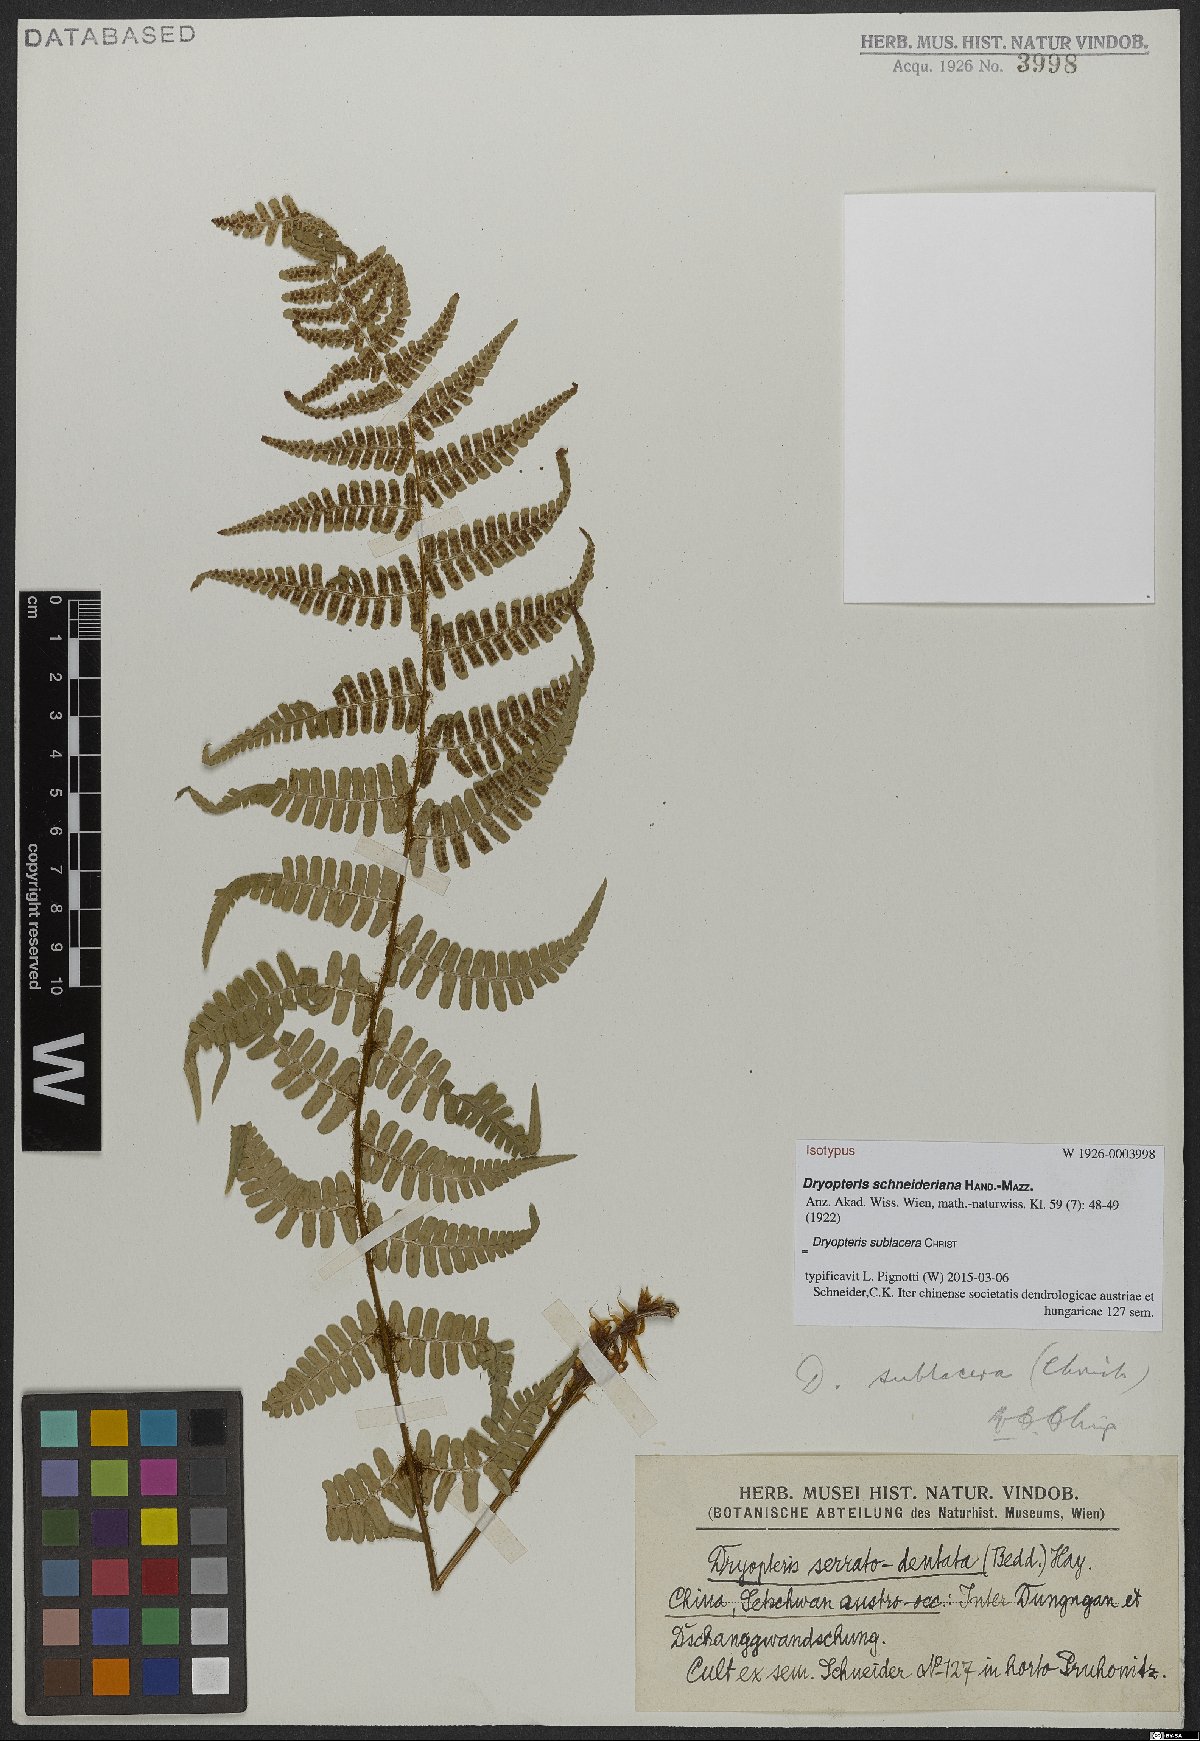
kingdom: Plantae
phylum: Tracheophyta
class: Polypodiopsida
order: Polypodiales
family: Dryopteridaceae
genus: Dryopteris
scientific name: Dryopteris sublacera
